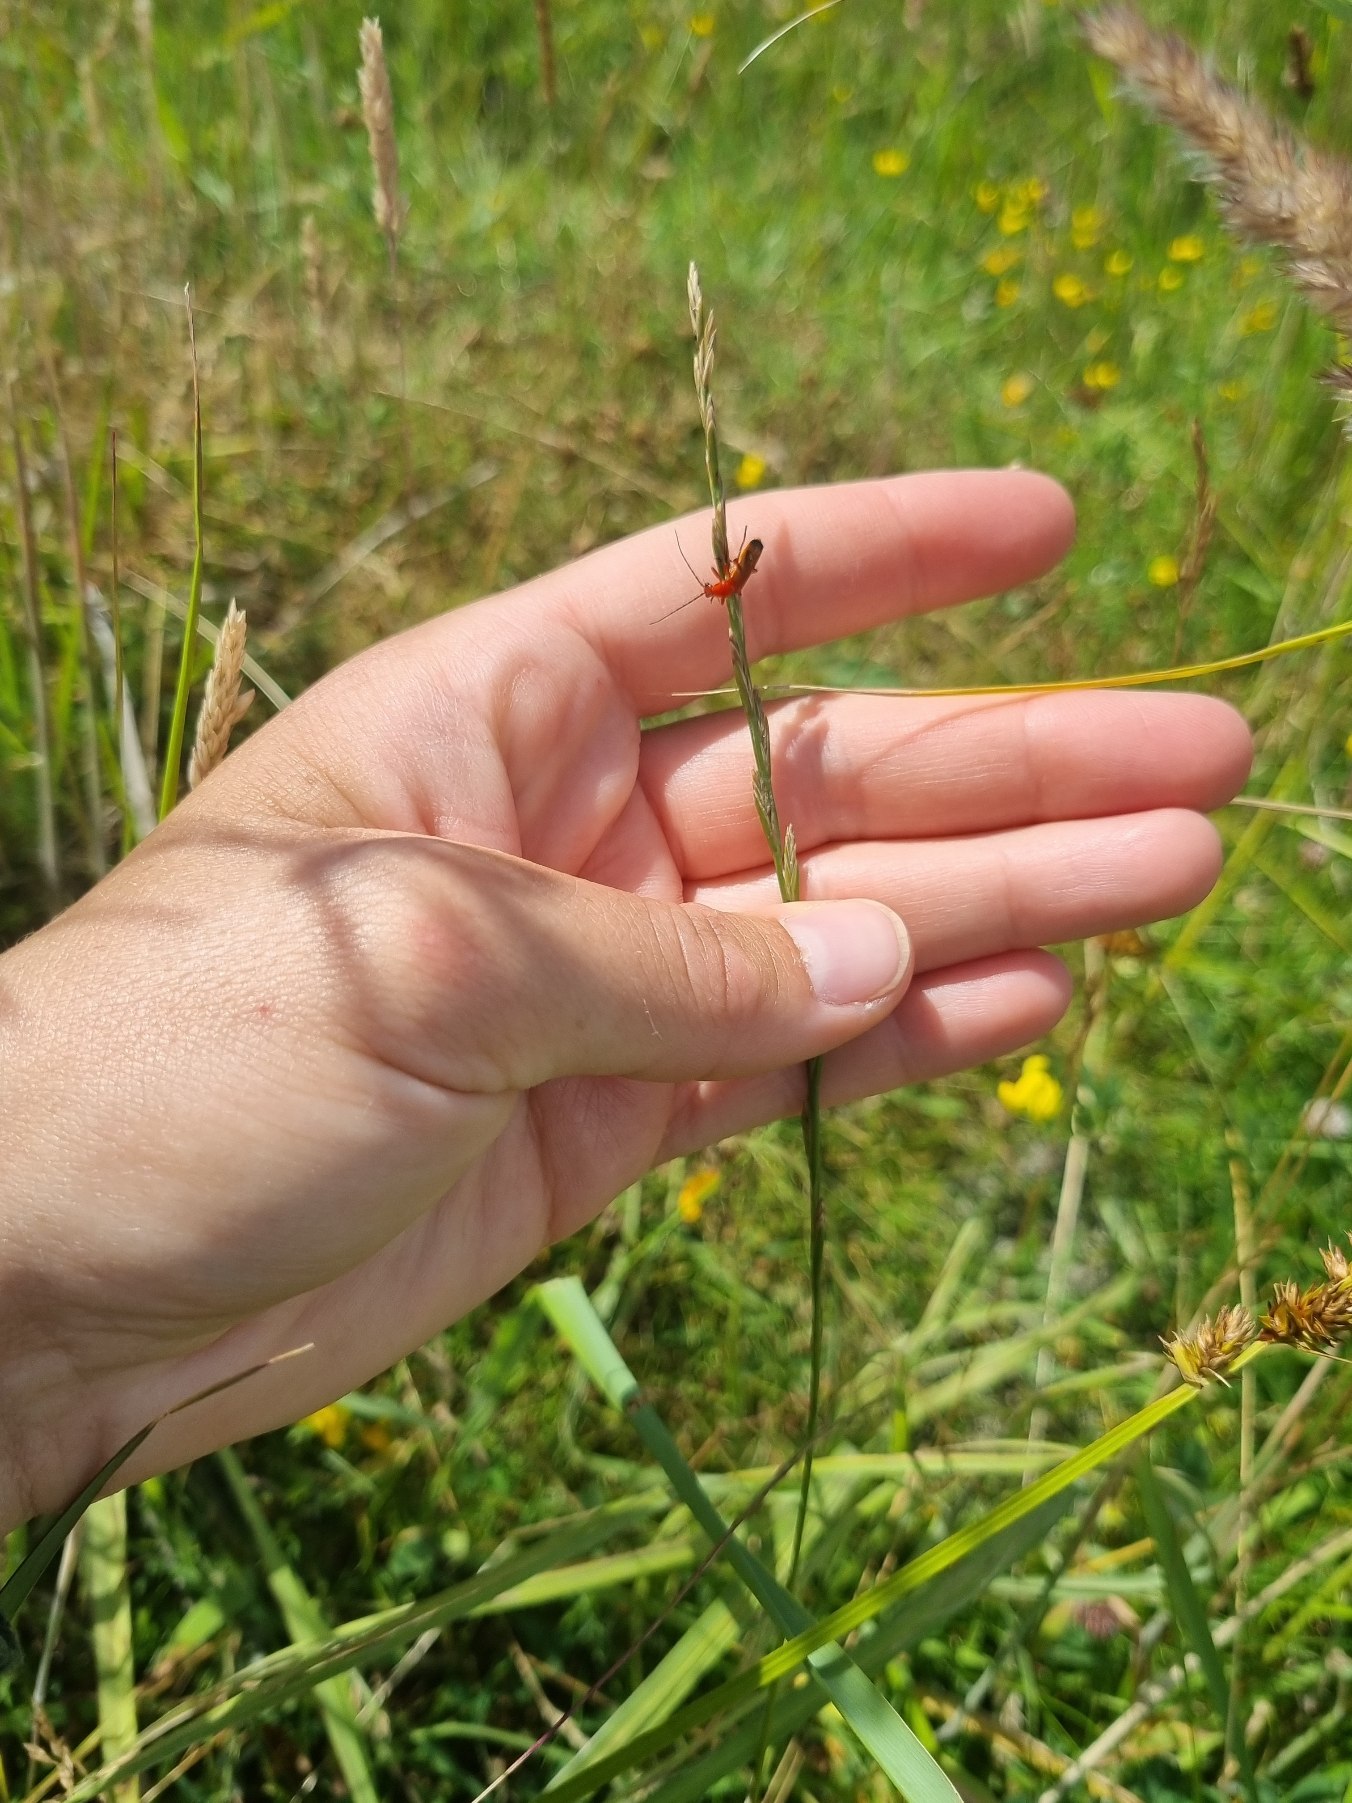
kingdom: Plantae
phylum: Tracheophyta
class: Liliopsida
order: Poales
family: Poaceae
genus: Lolium
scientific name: Lolium perenne
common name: Almindelig rajgræs
